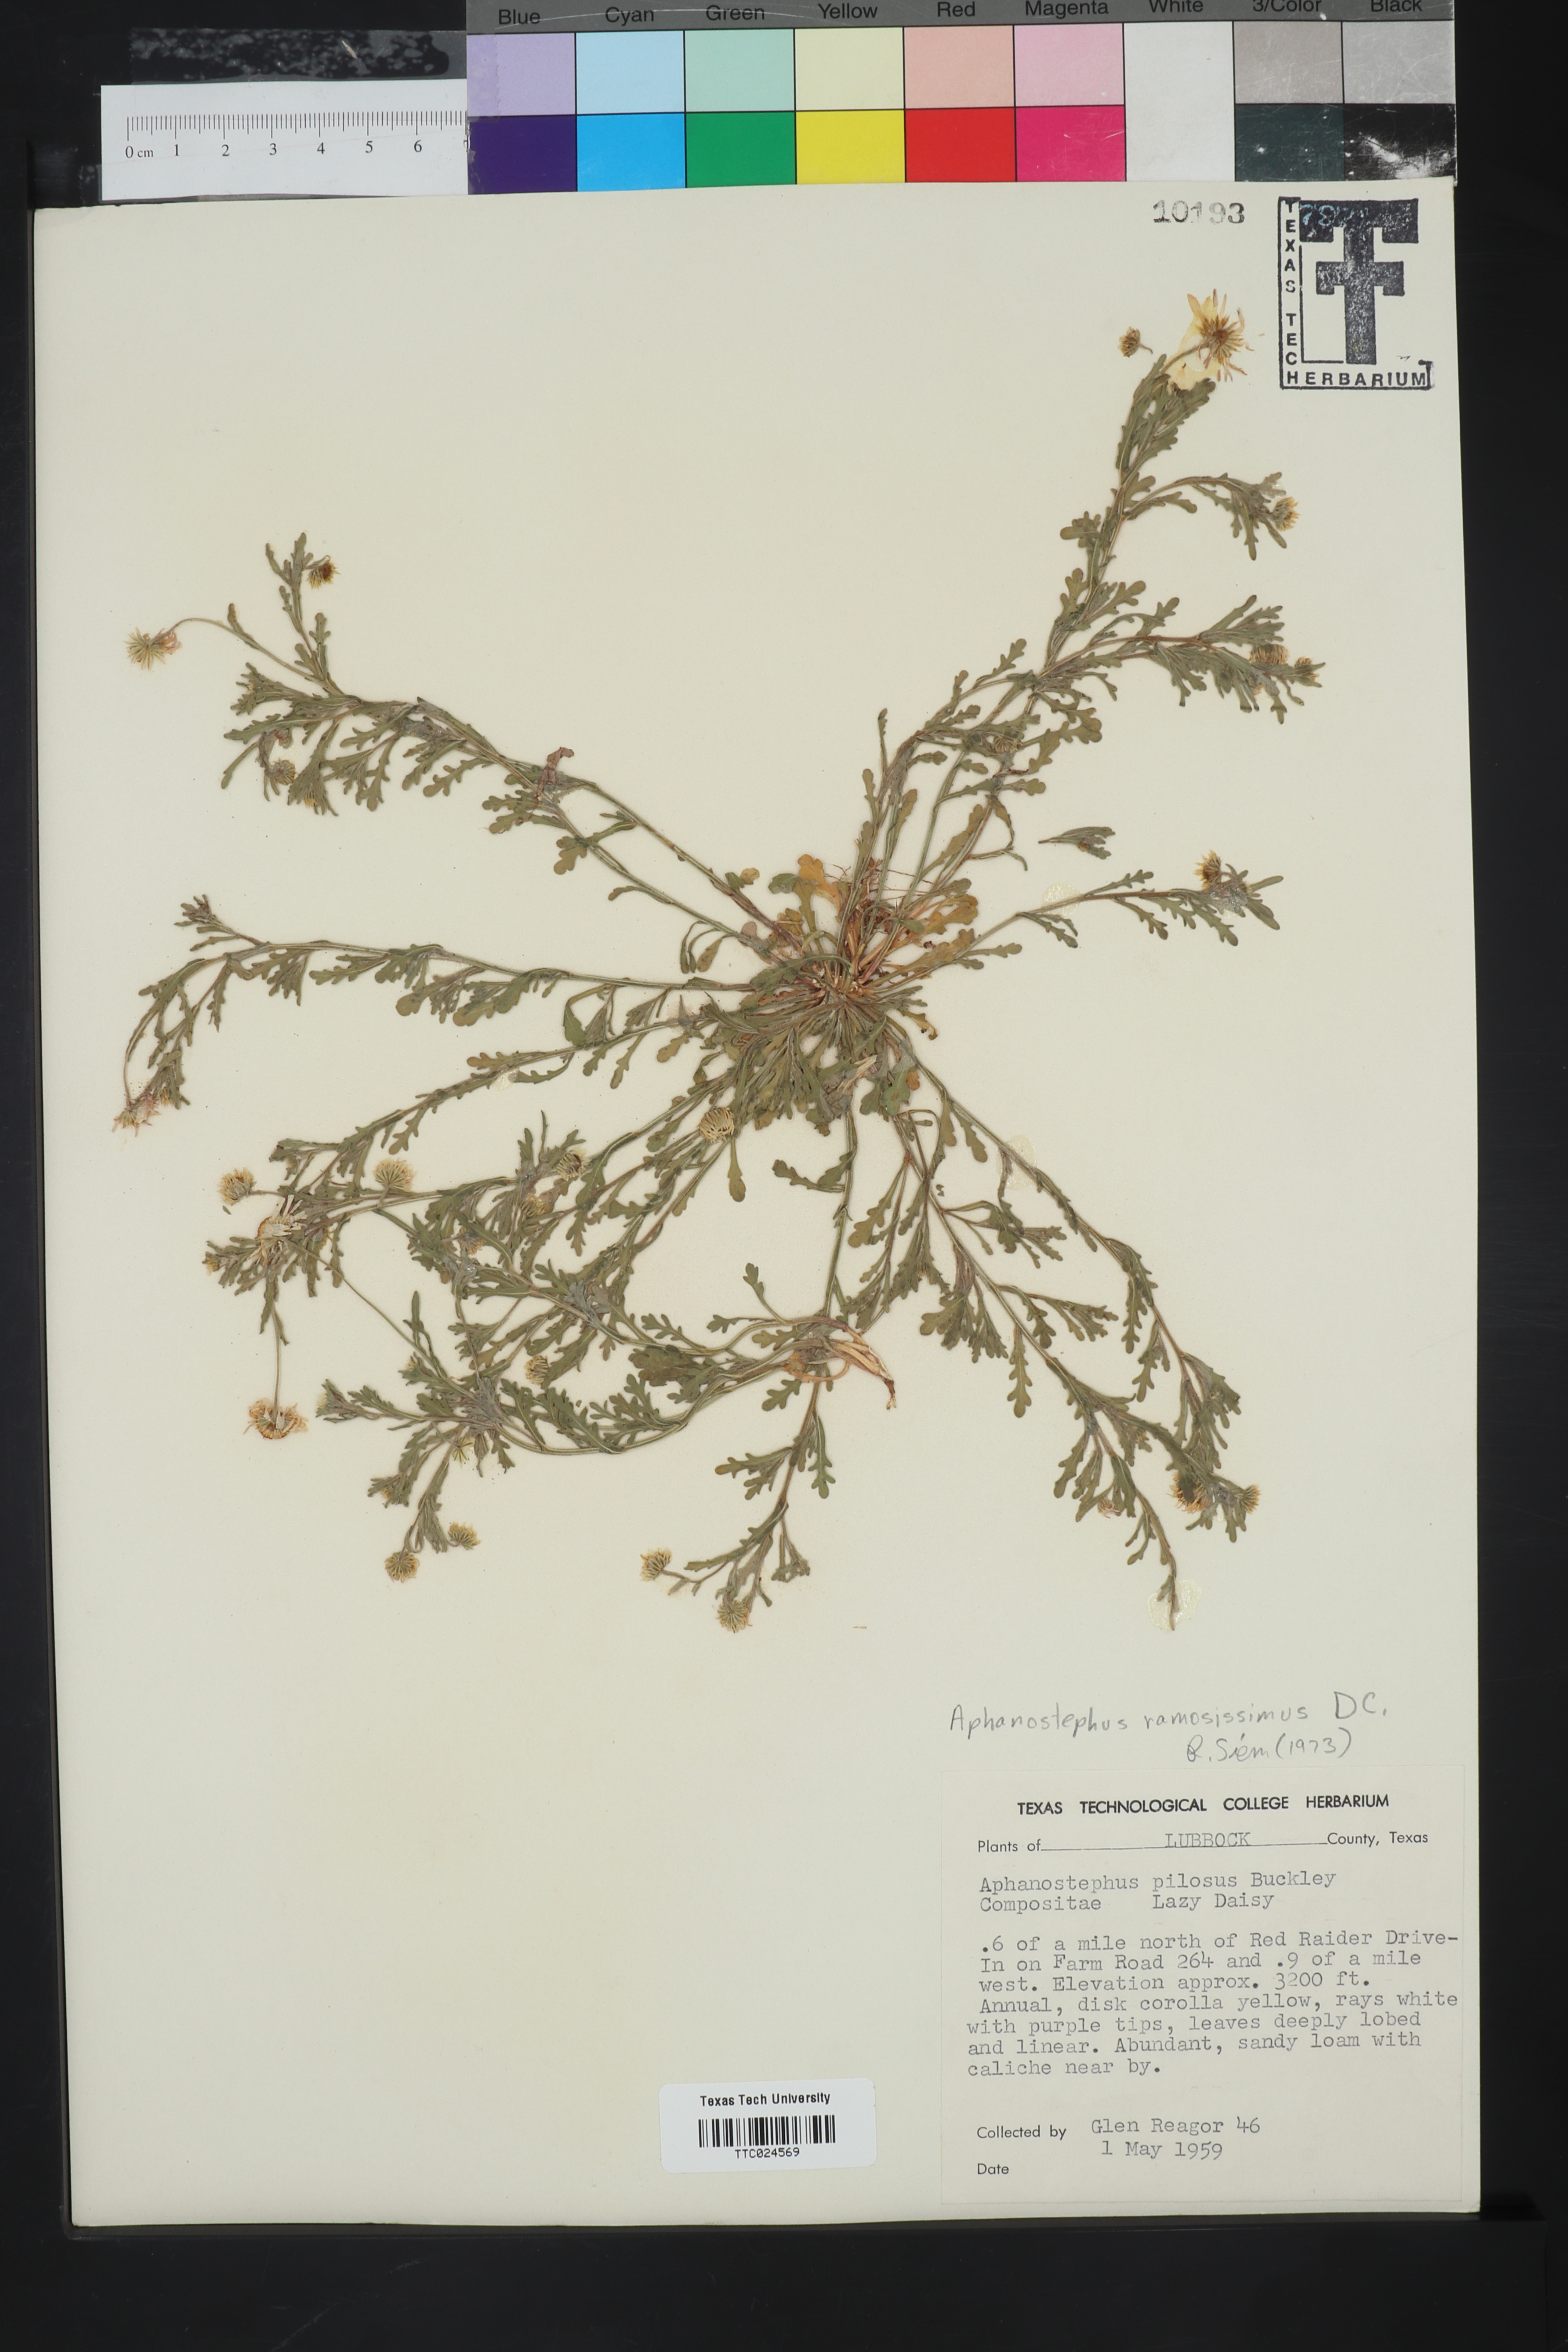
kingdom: Plantae
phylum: Tracheophyta
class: Magnoliopsida
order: Asterales
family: Asteraceae
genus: Aphanostephus
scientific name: Aphanostephus pilosus
